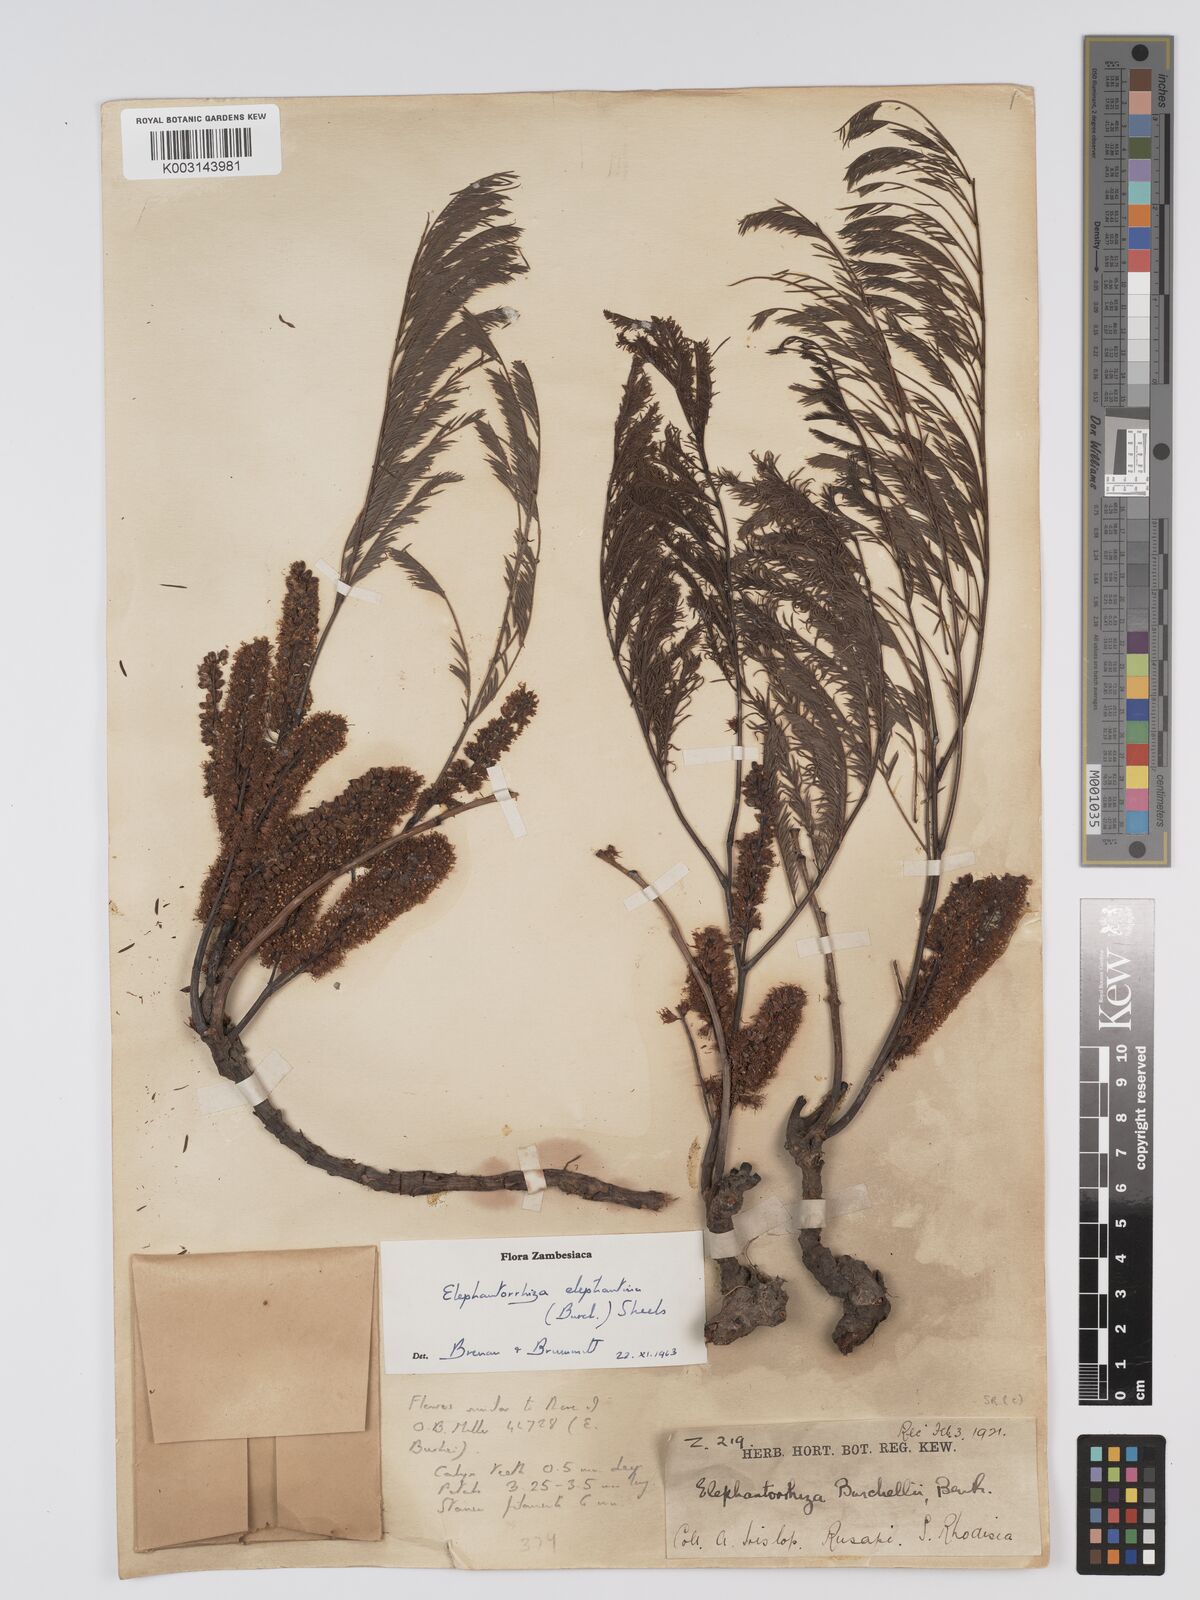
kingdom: Plantae
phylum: Tracheophyta
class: Magnoliopsida
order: Fabales
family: Fabaceae
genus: Elephantorrhiza
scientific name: Elephantorrhiza elephantina
